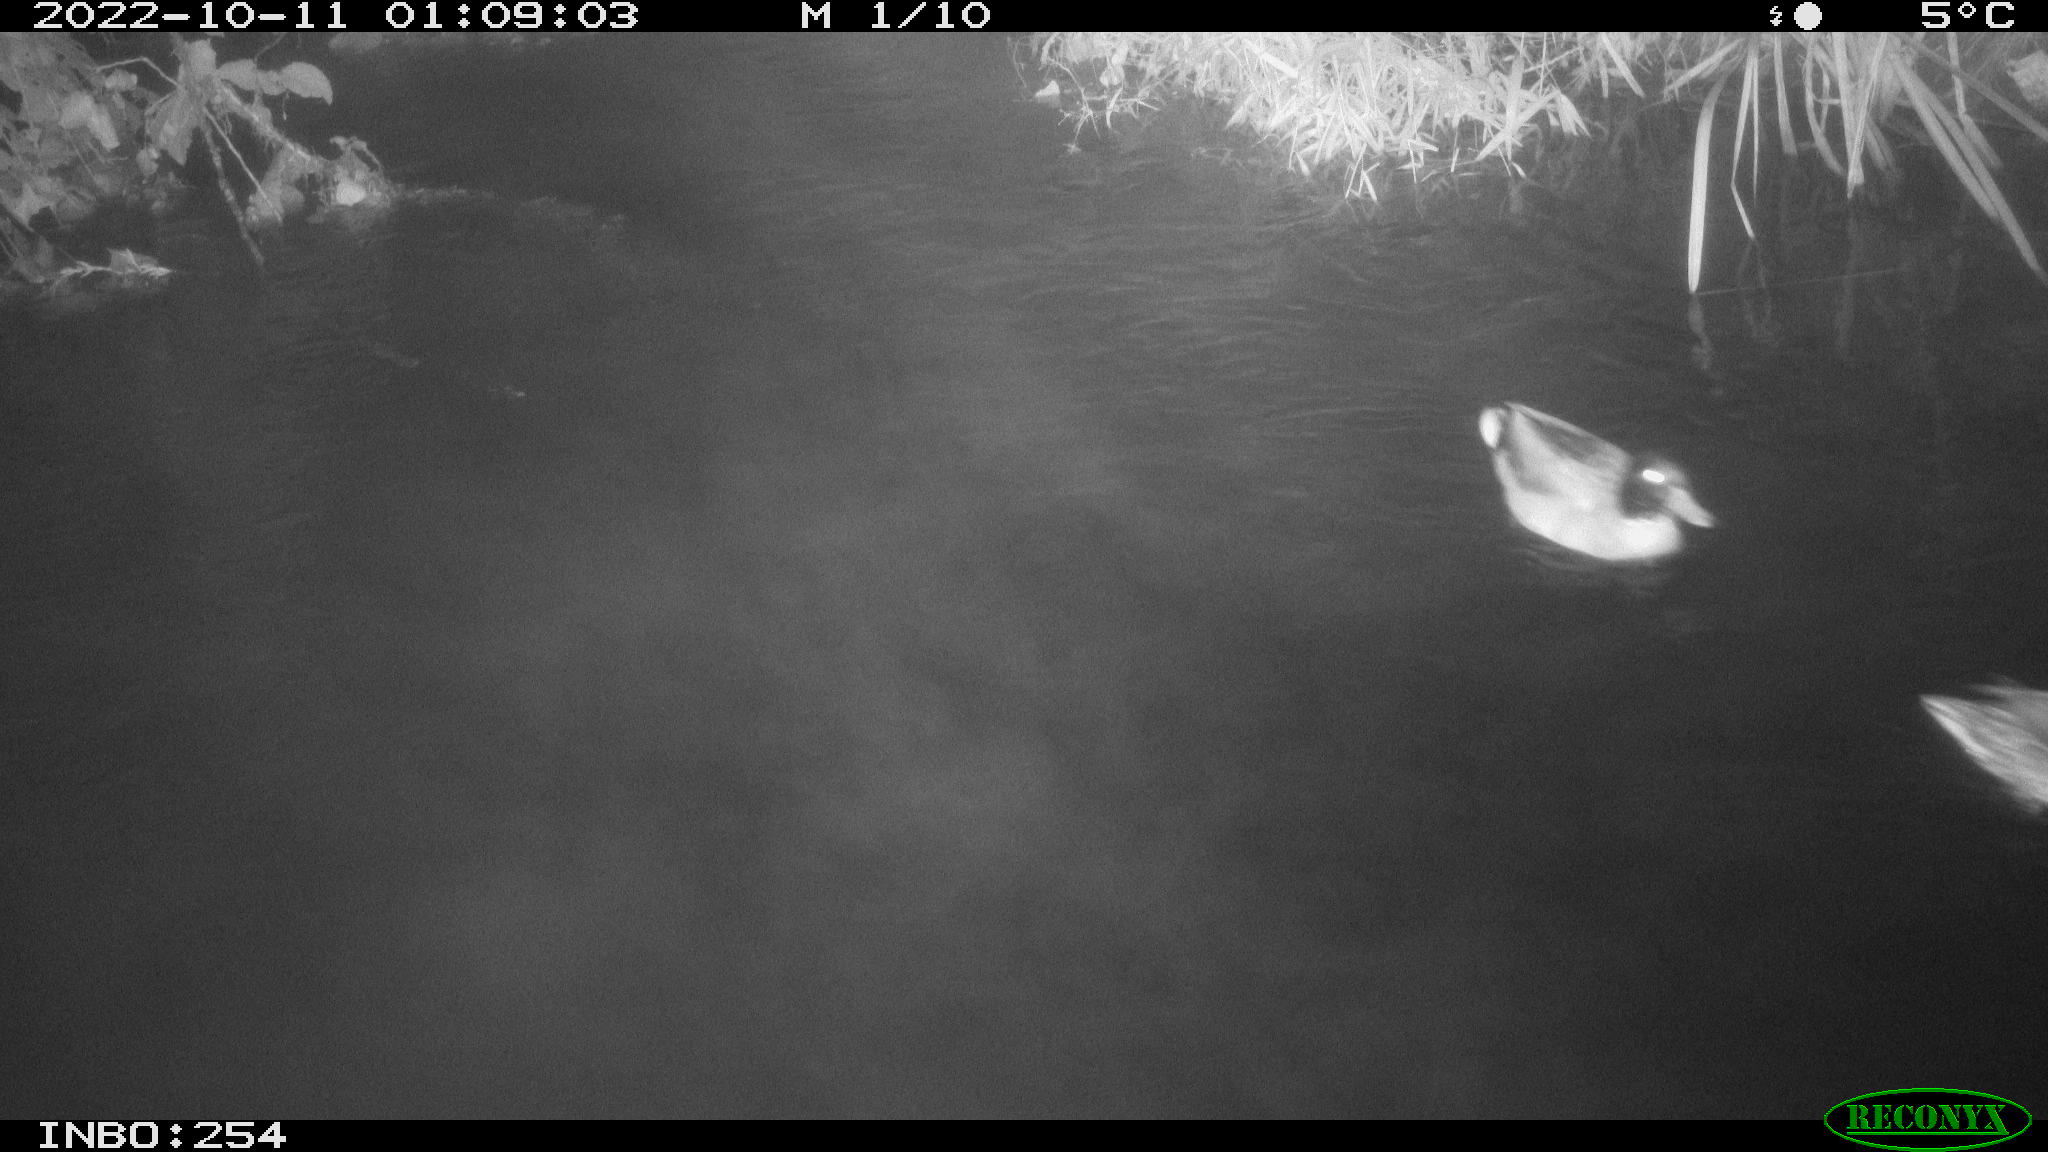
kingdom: Animalia
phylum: Chordata
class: Aves
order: Anseriformes
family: Anatidae
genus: Anas
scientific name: Anas
